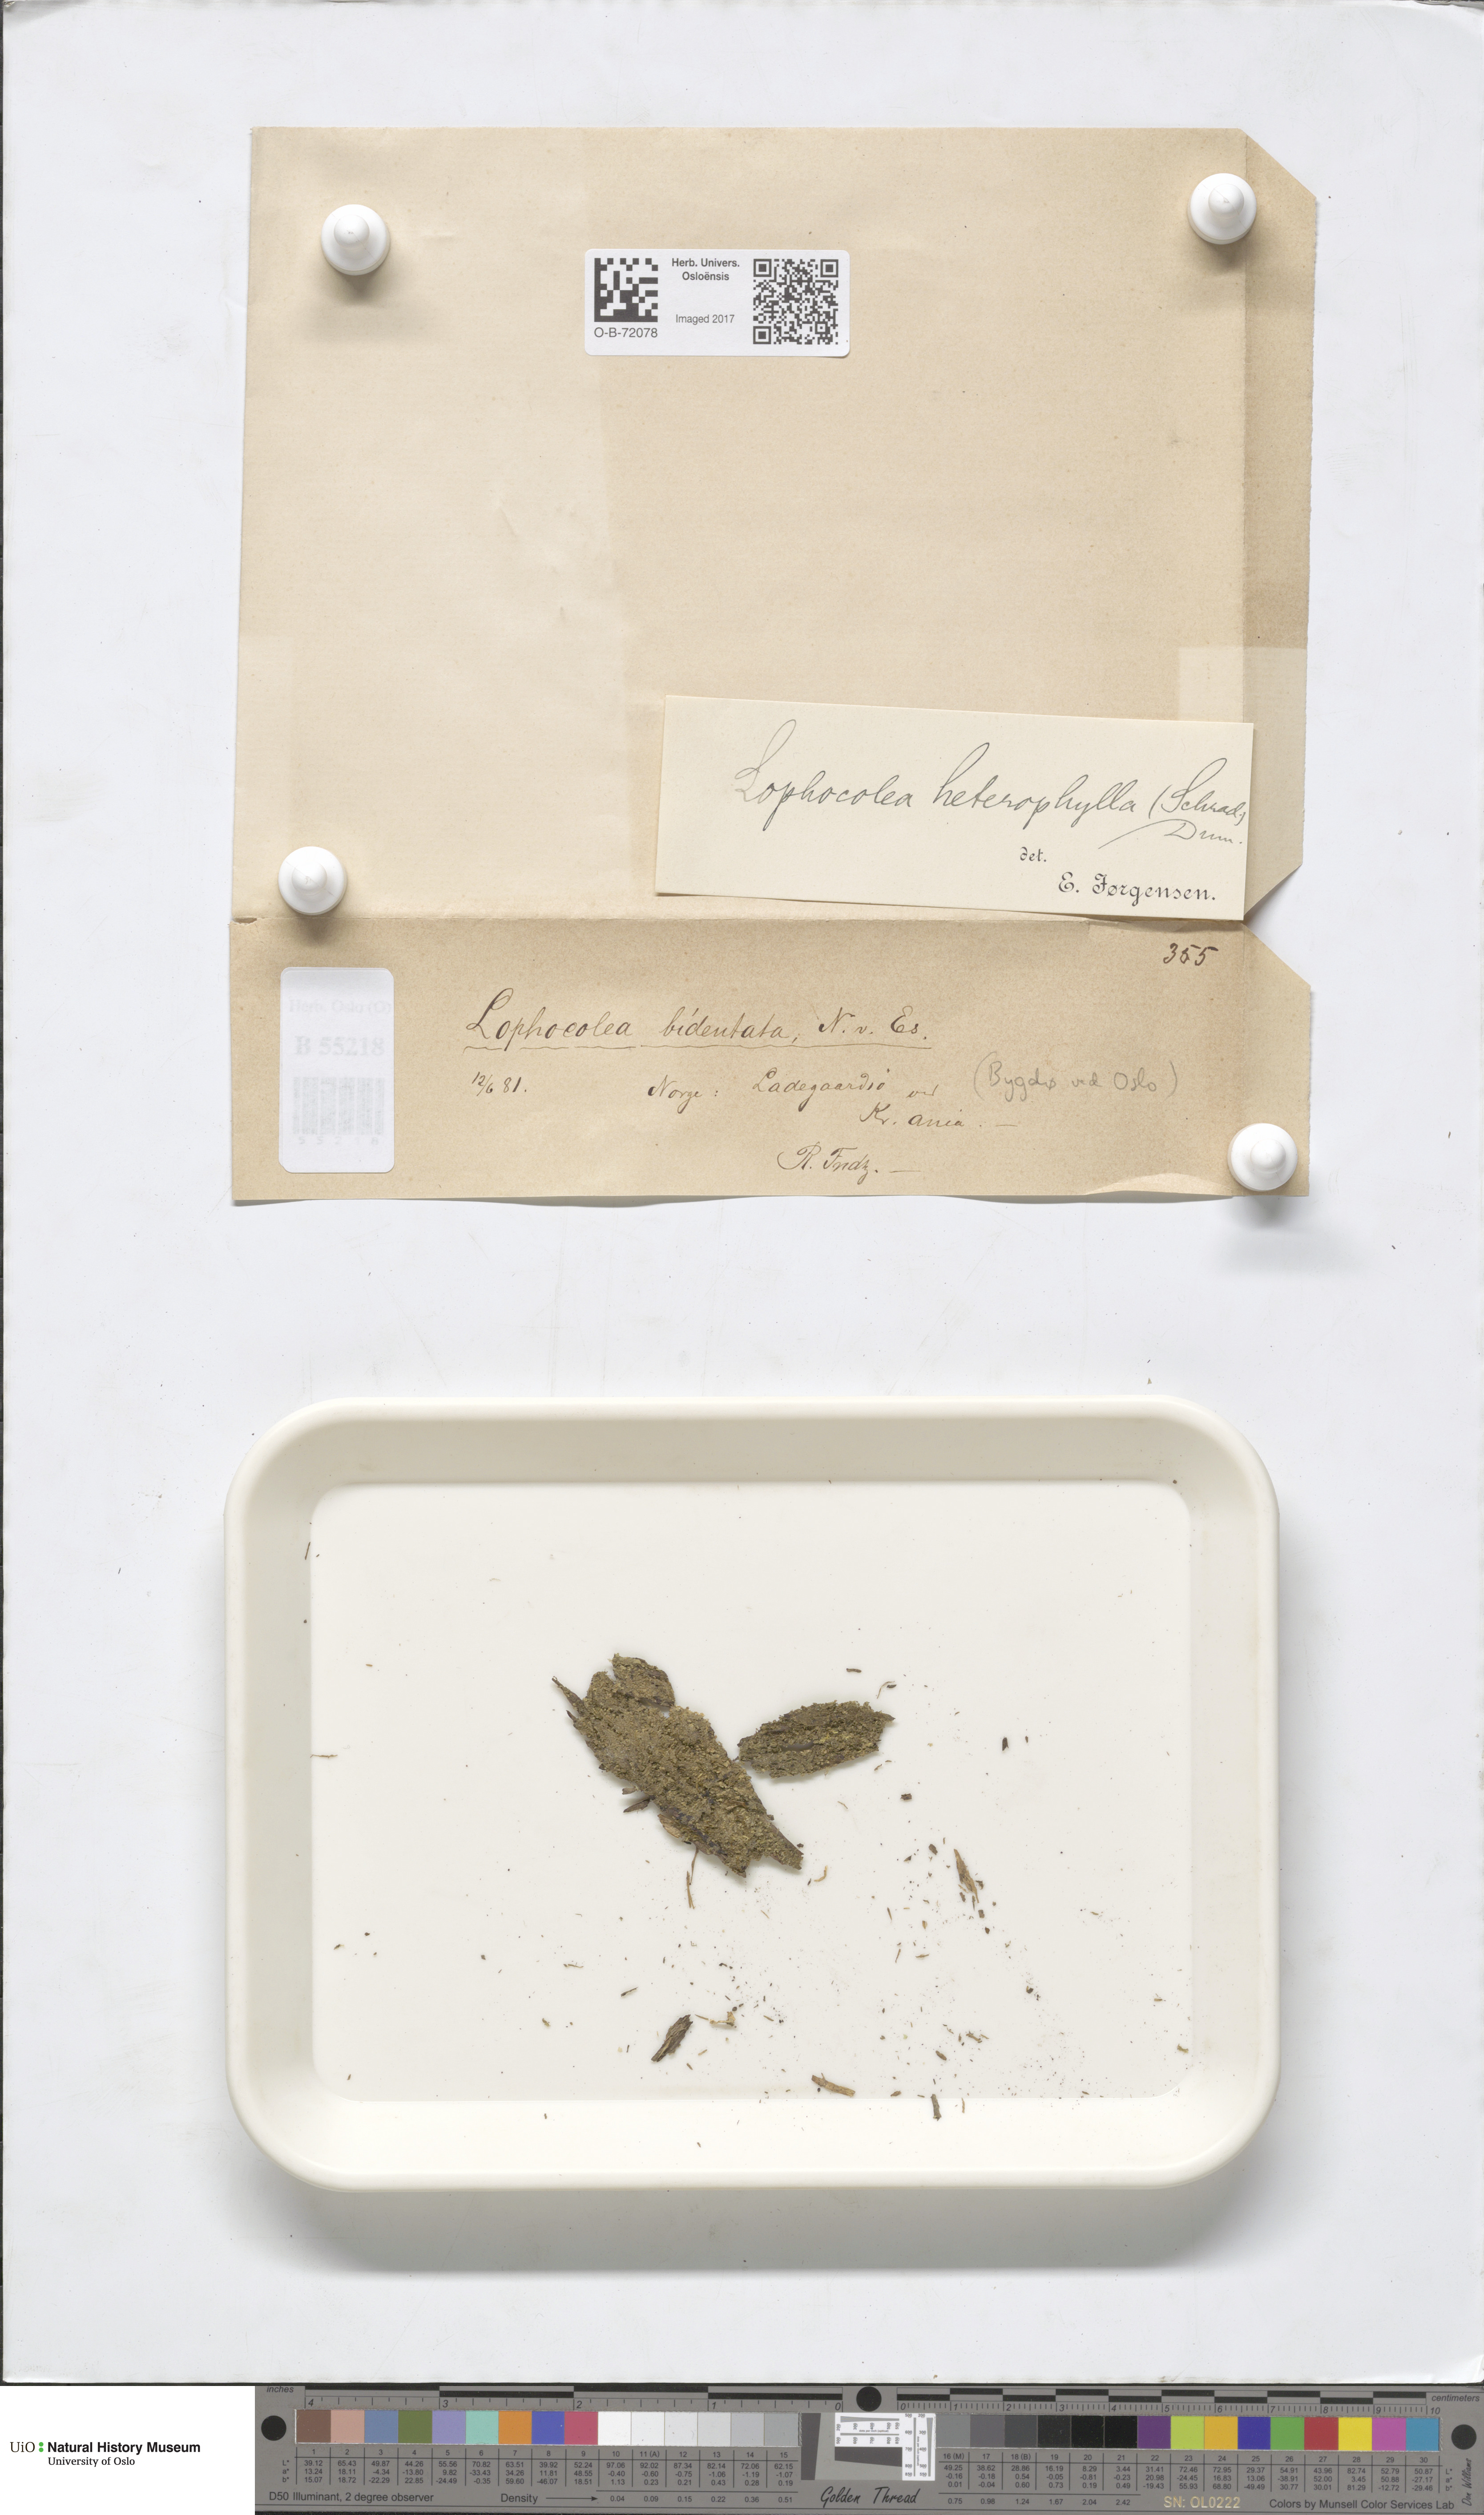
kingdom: Plantae
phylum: Marchantiophyta
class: Jungermanniopsida
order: Jungermanniales
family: Lophocoleaceae
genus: Chiloscyphus
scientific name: Chiloscyphus polyanthos
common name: Square-leaved crestwort
